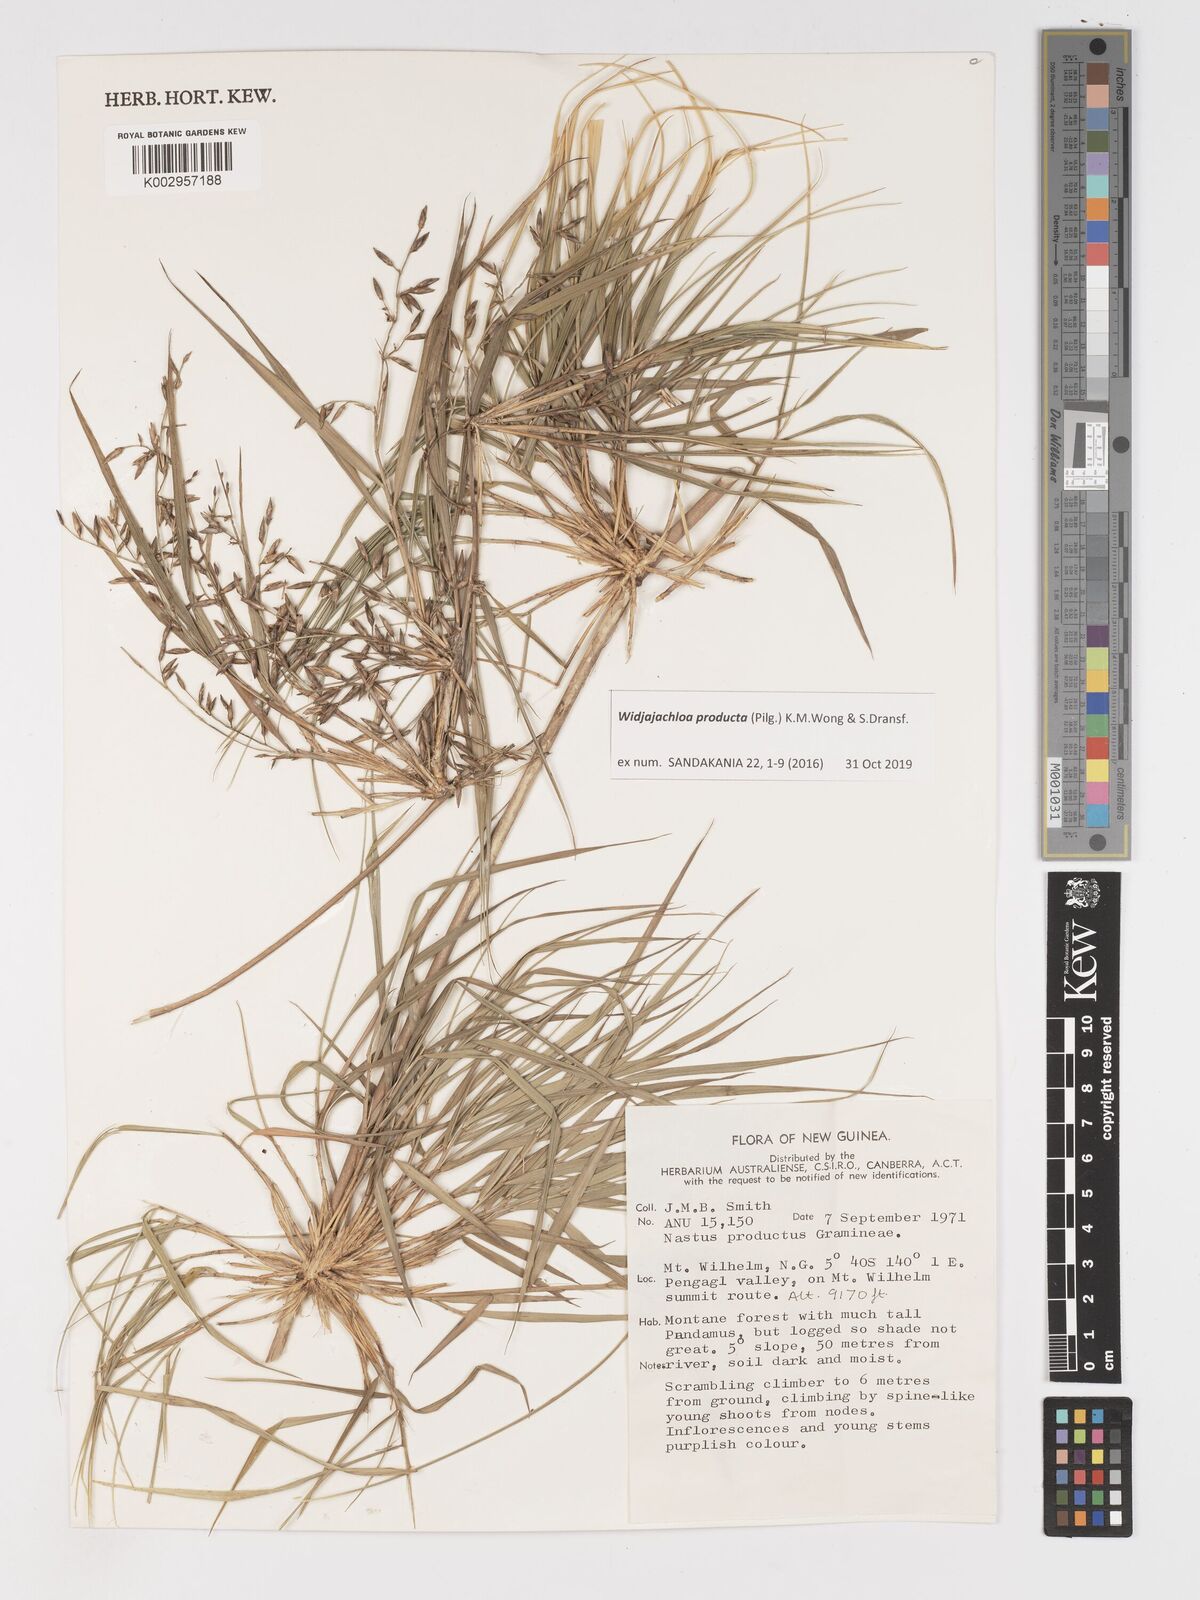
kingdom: Plantae
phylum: Tracheophyta
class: Liliopsida
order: Poales
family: Poaceae
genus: Widjajachloa
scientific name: Widjajachloa producta
